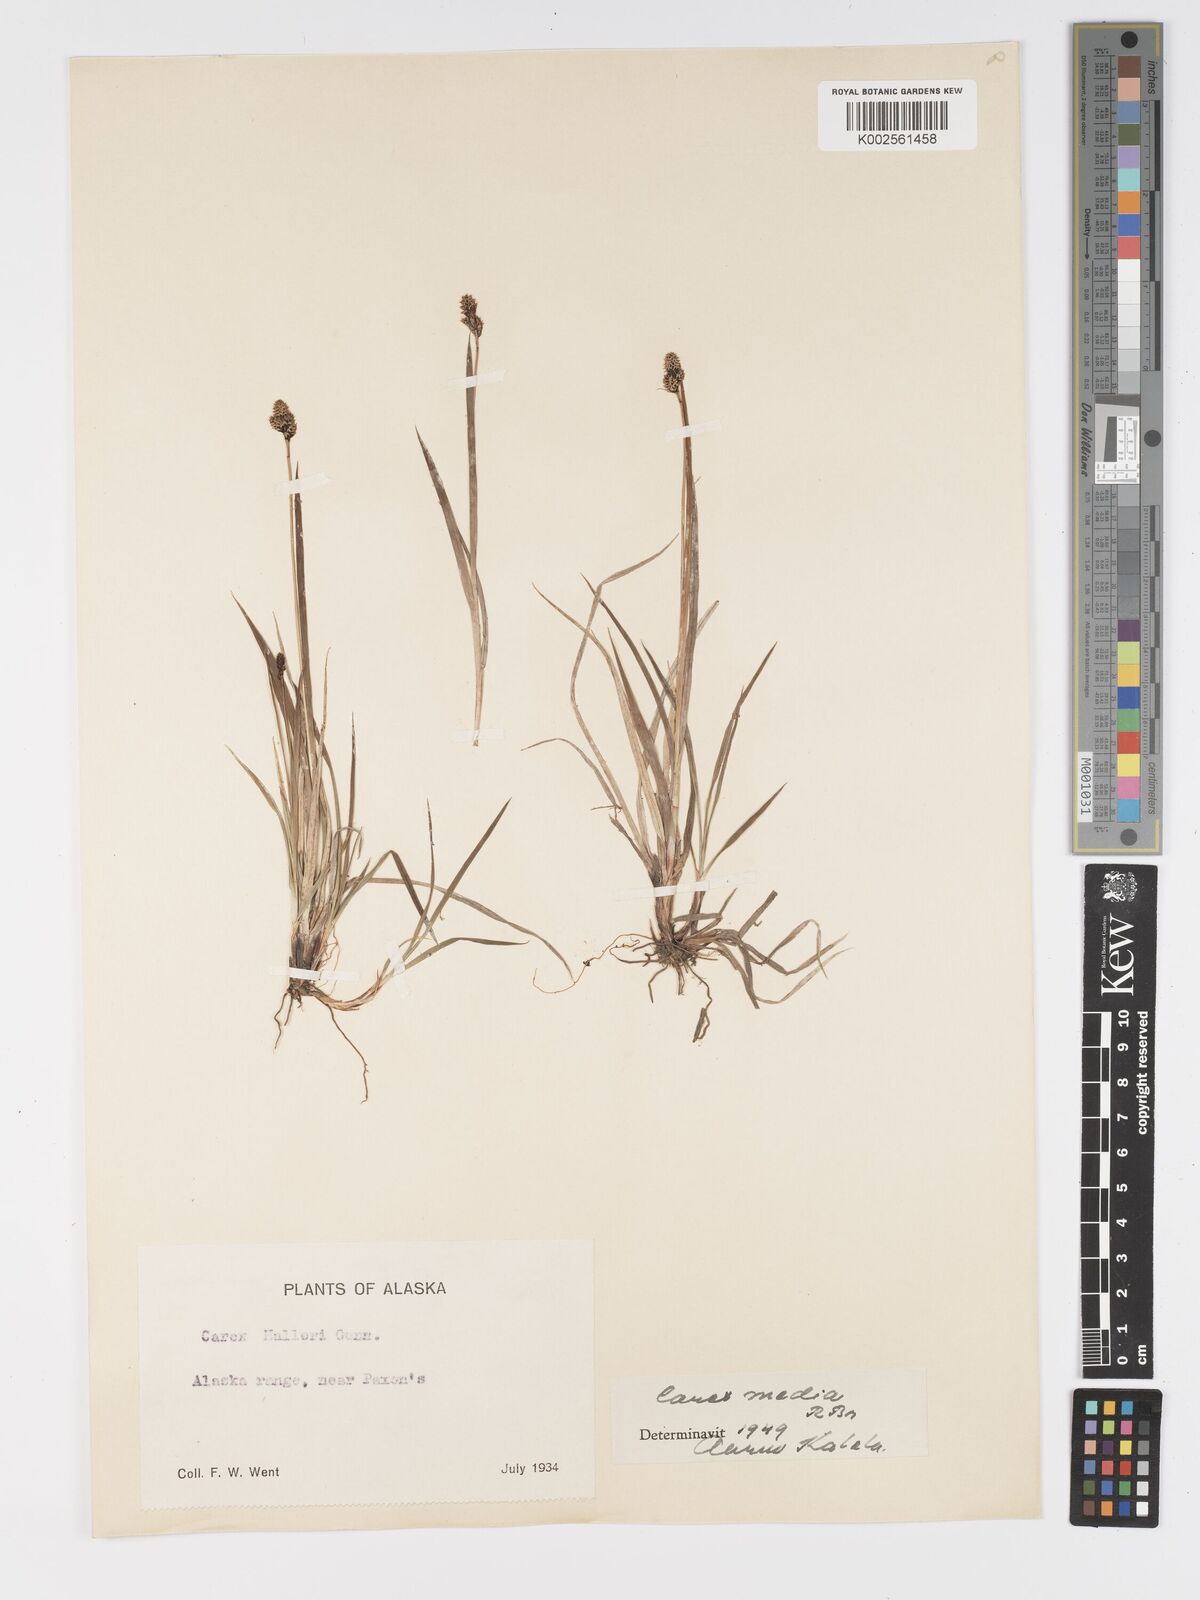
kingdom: Plantae
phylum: Tracheophyta
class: Liliopsida
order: Poales
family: Cyperaceae
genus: Carex
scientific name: Carex media
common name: Alpine sedge
